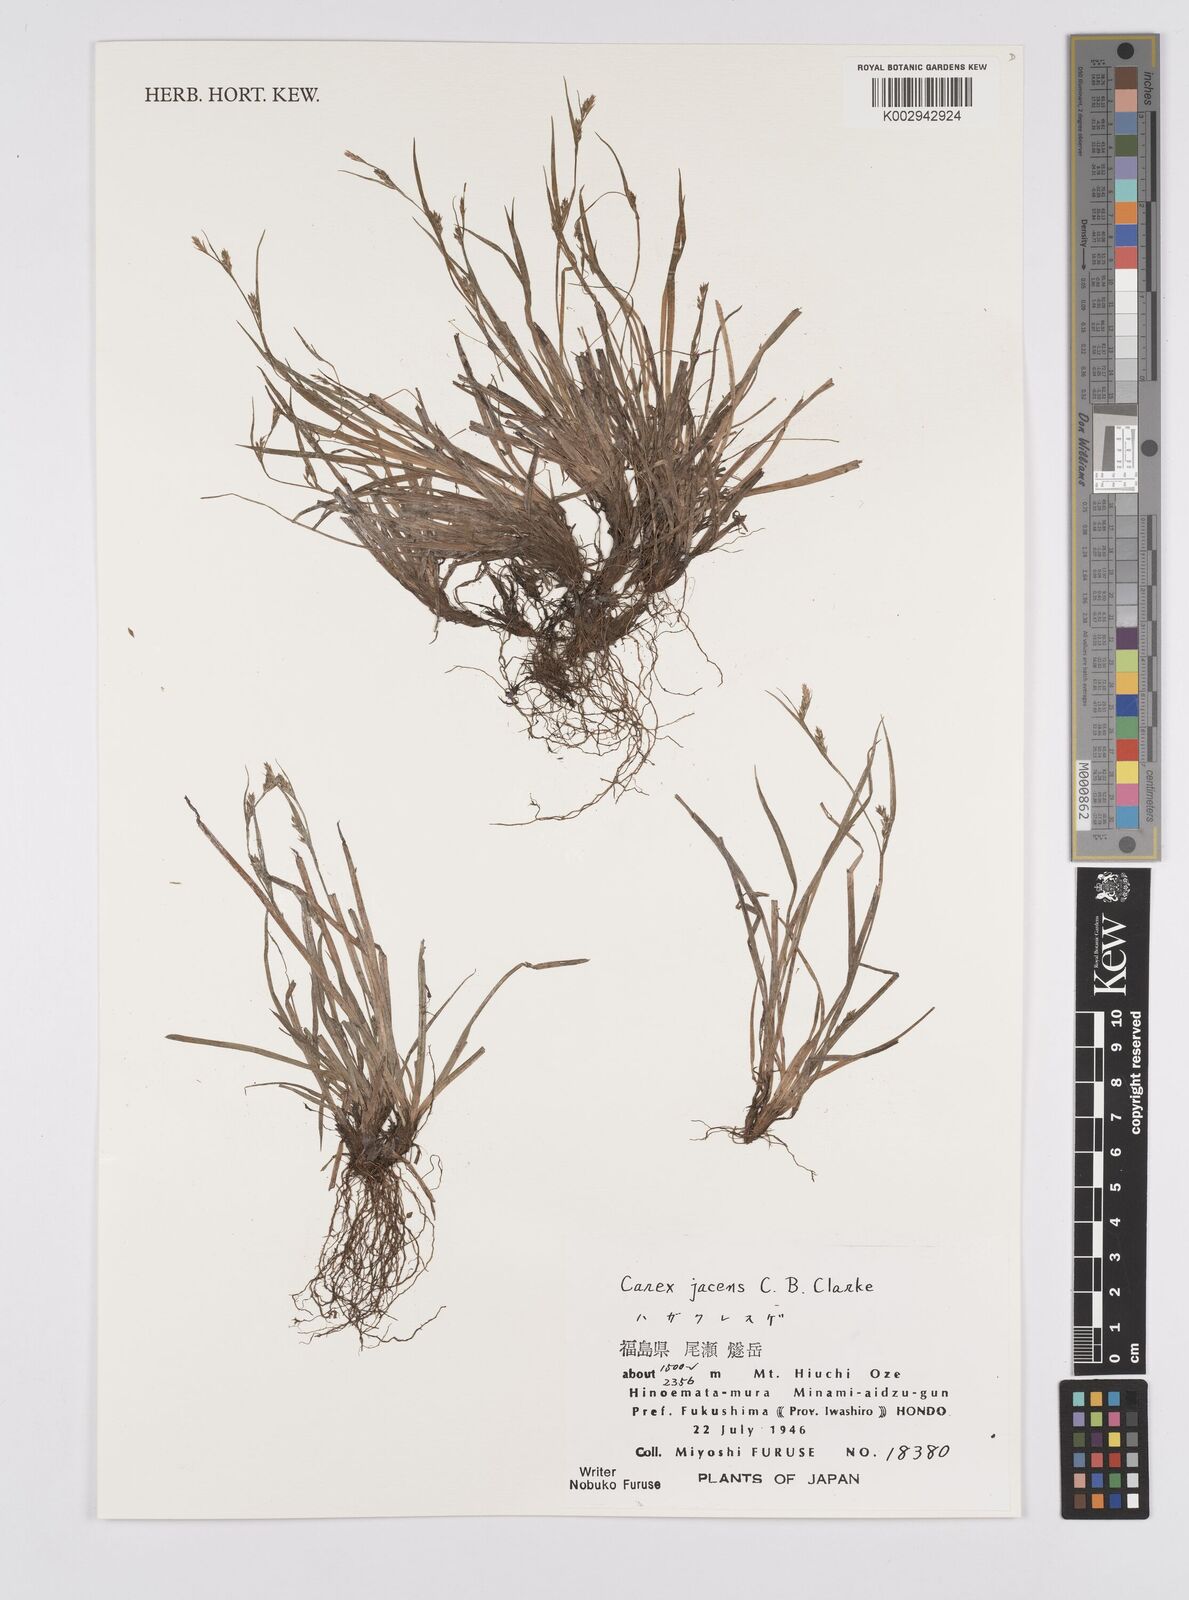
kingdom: Plantae
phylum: Tracheophyta
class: Liliopsida
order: Poales
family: Cyperaceae
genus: Carex
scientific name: Carex jacens
